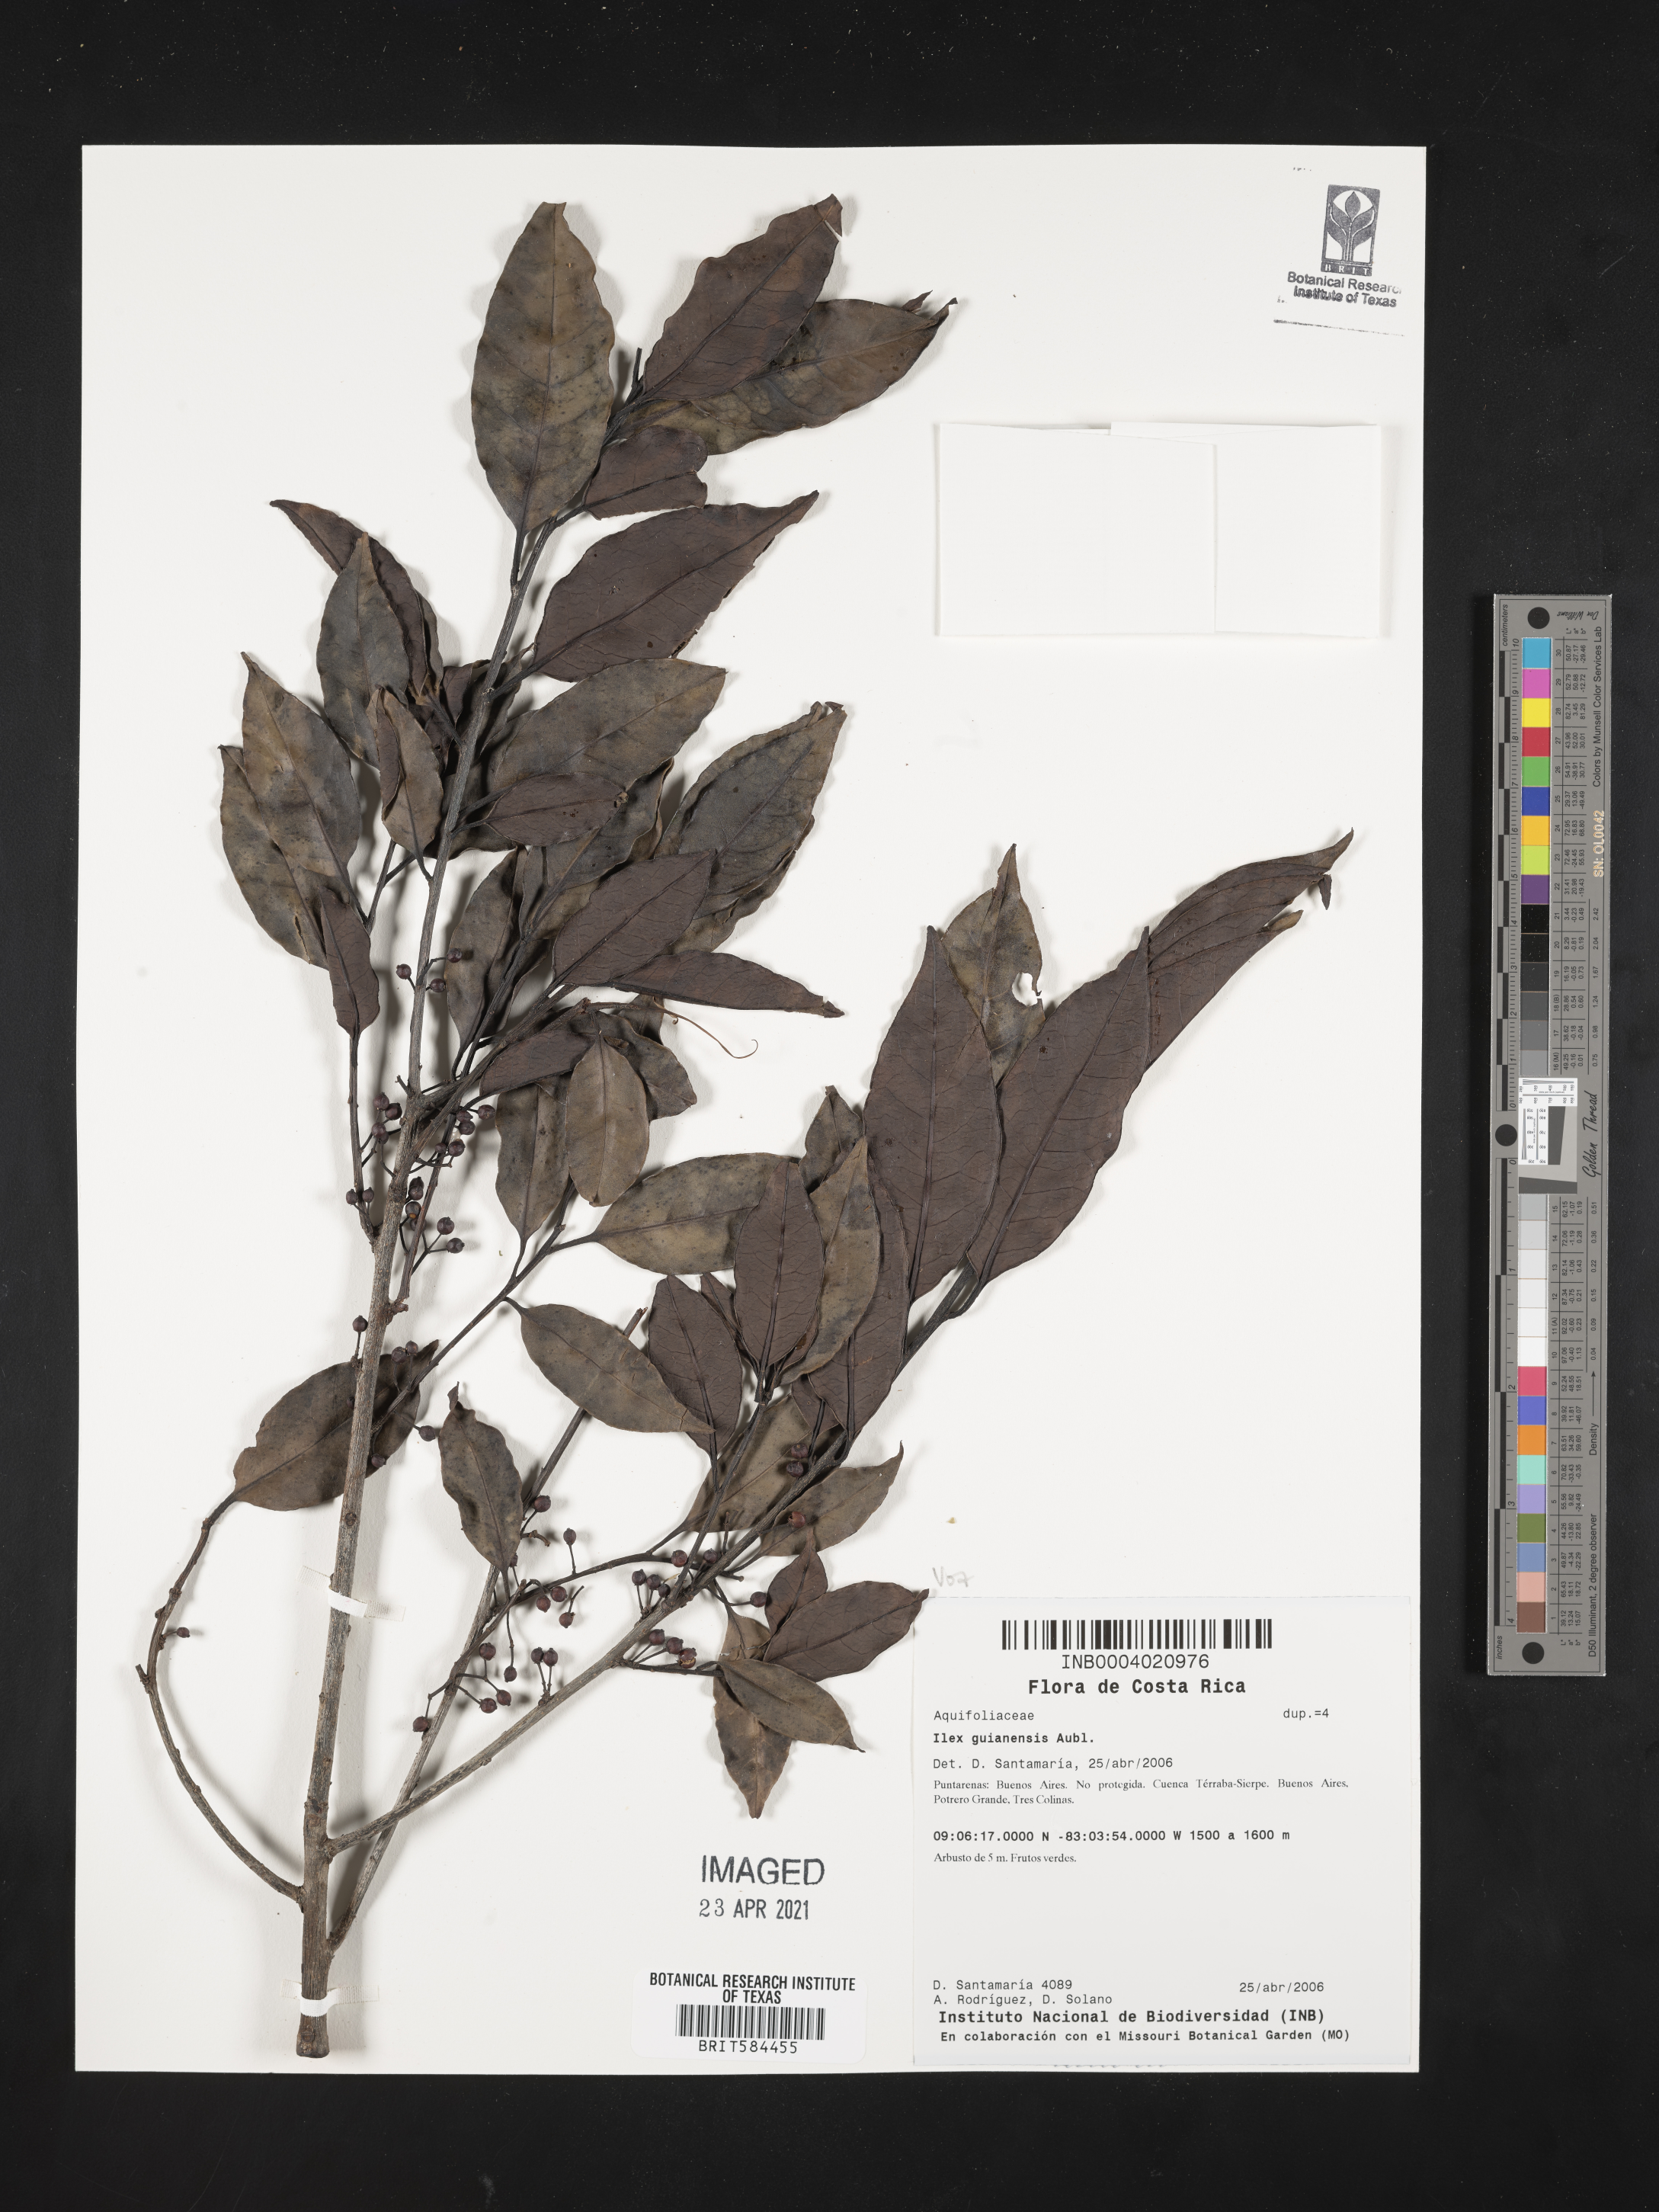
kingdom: Plantae
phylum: Tracheophyta
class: Magnoliopsida
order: Aquifoliales
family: Aquifoliaceae
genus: Ilex
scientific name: Ilex guianensis
